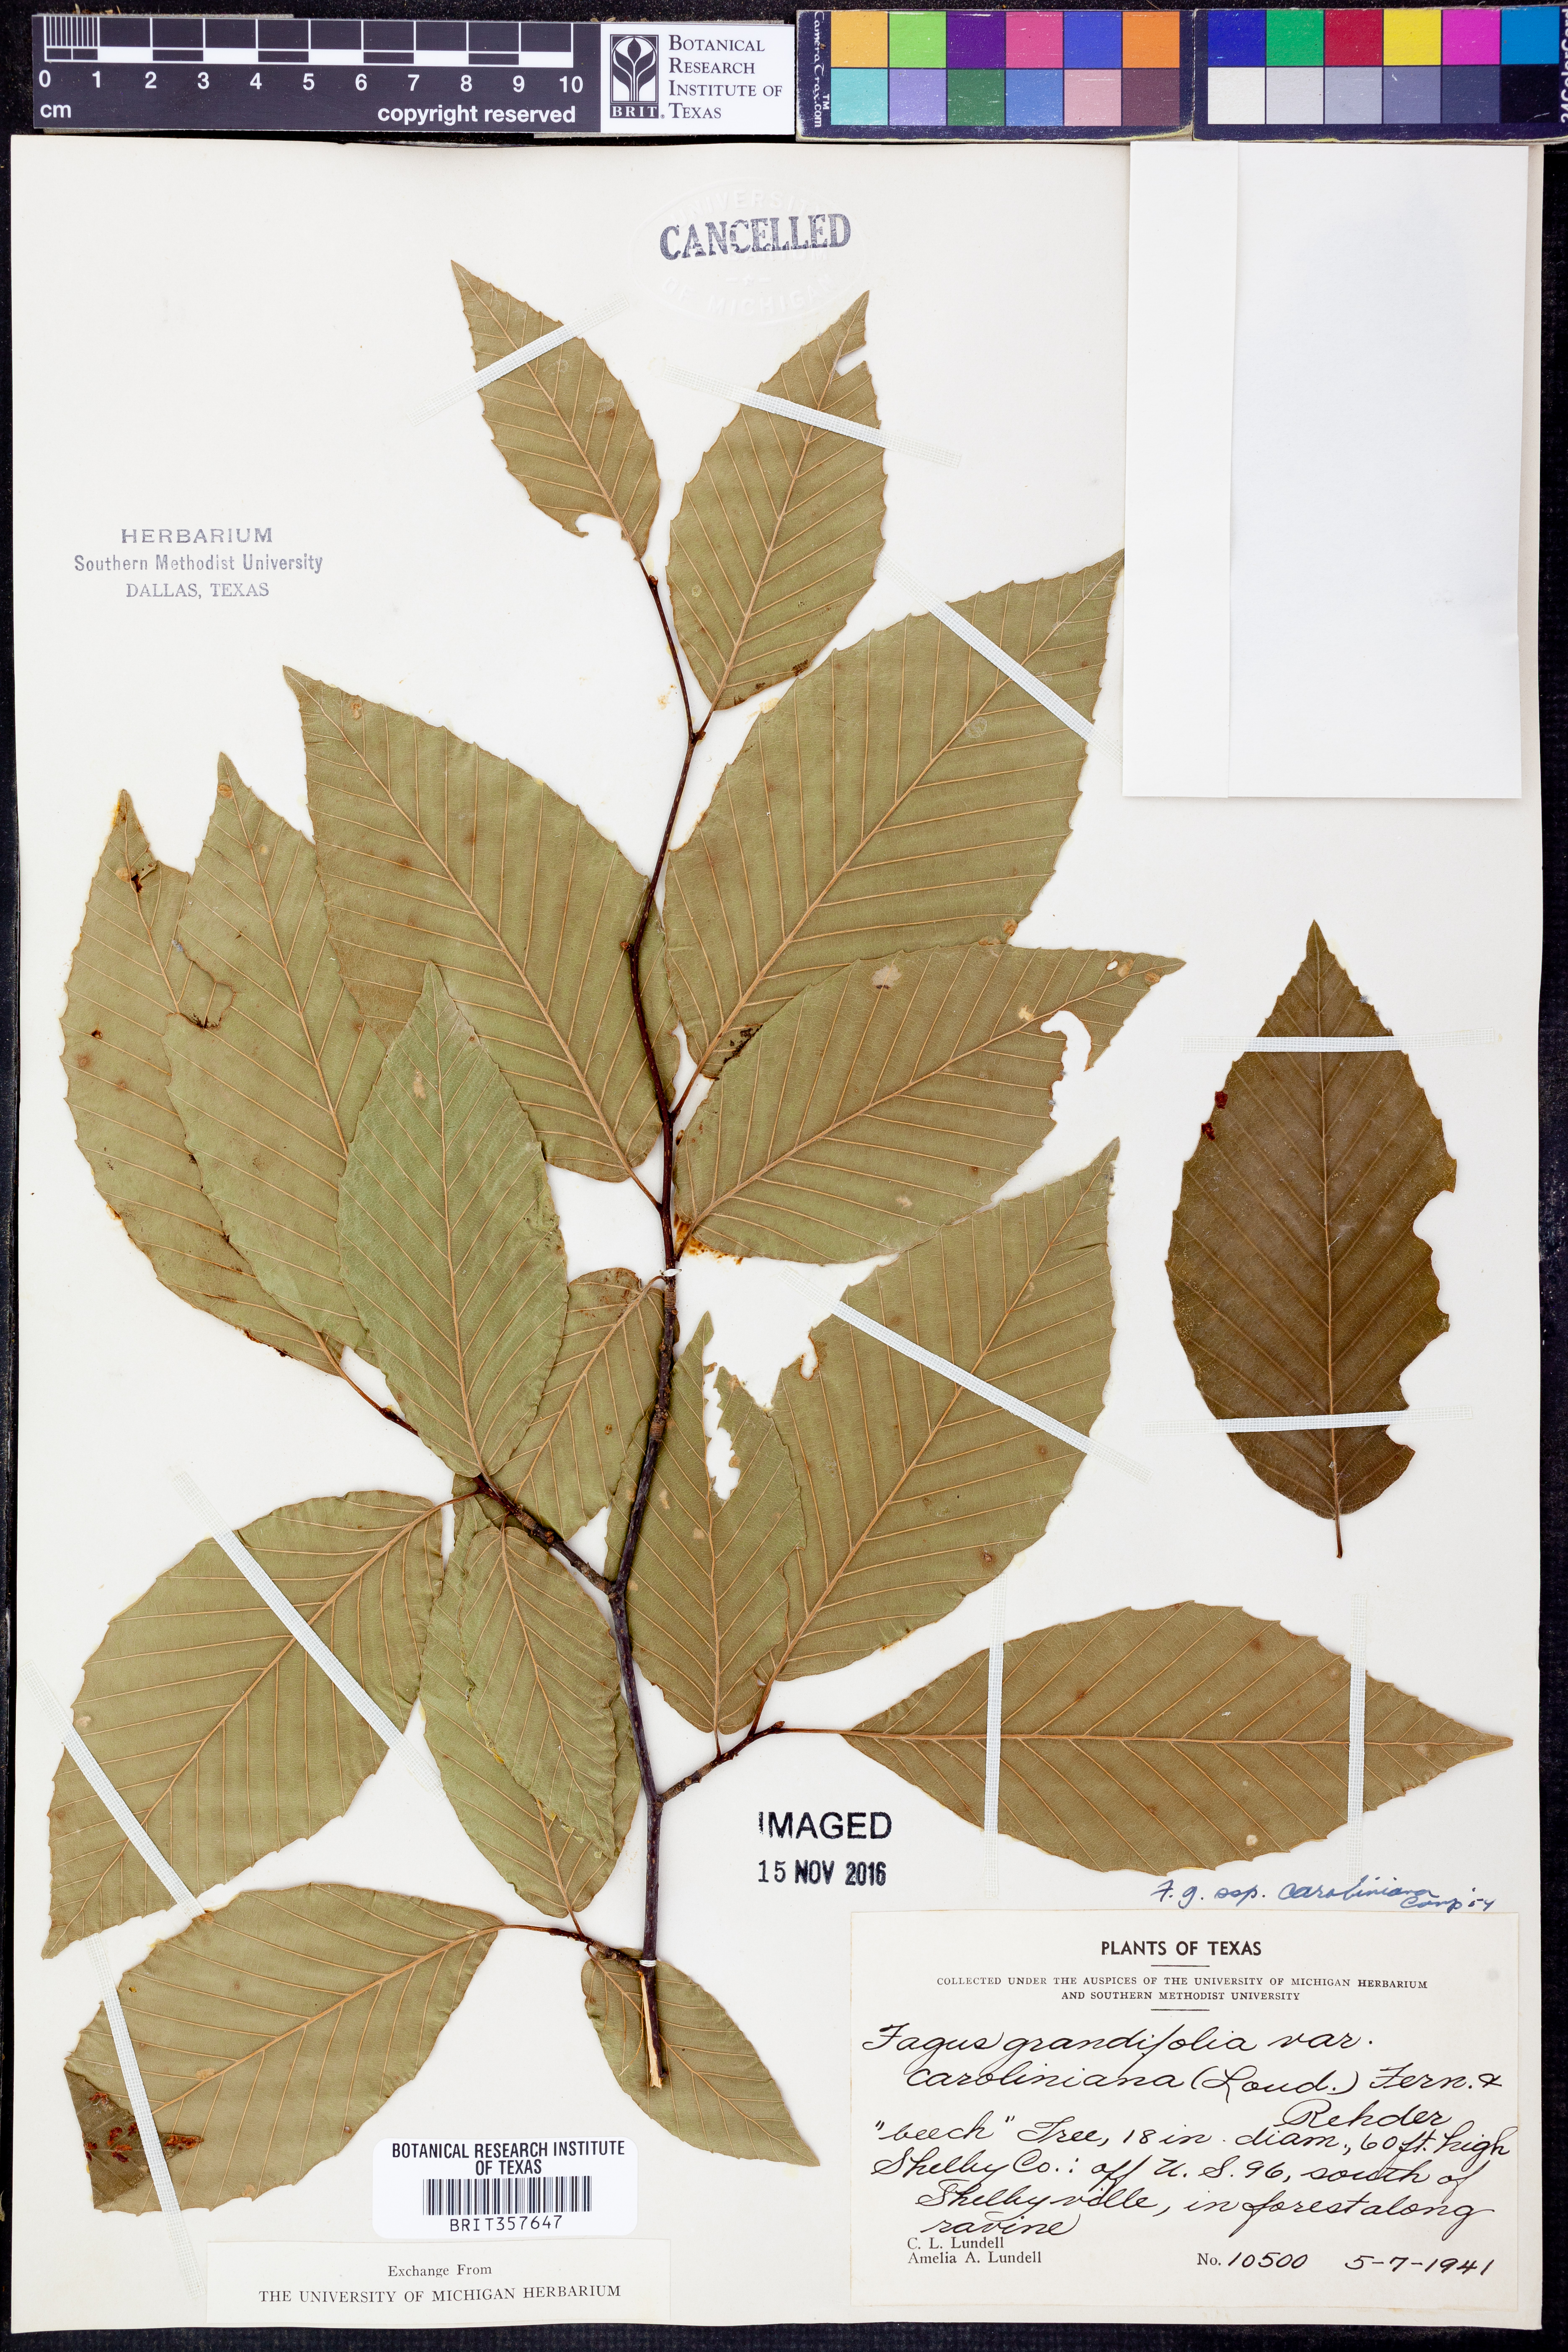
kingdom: Plantae
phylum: Tracheophyta
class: Magnoliopsida
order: Fagales
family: Fagaceae
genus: Fagus
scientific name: Fagus grandifolia
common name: American beech
